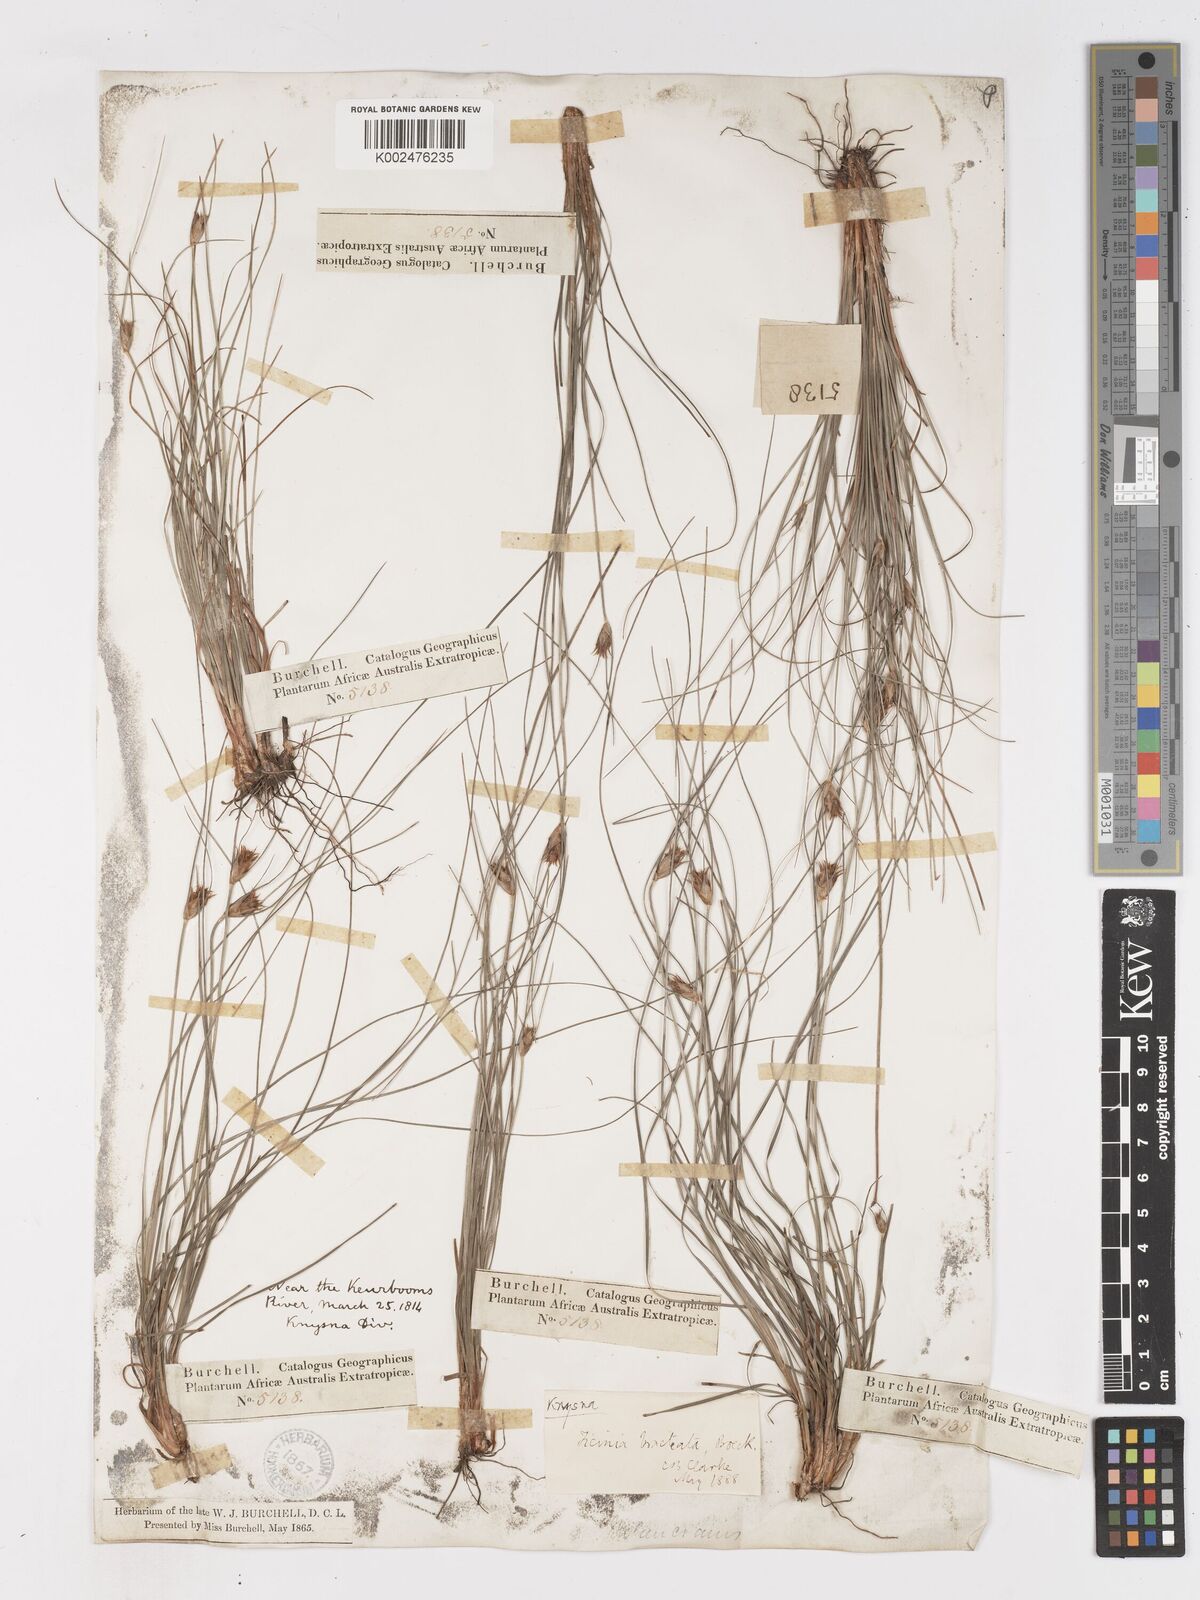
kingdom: Plantae
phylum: Tracheophyta
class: Liliopsida
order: Poales
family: Cyperaceae
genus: Ficinia
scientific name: Ficinia nigrescens
